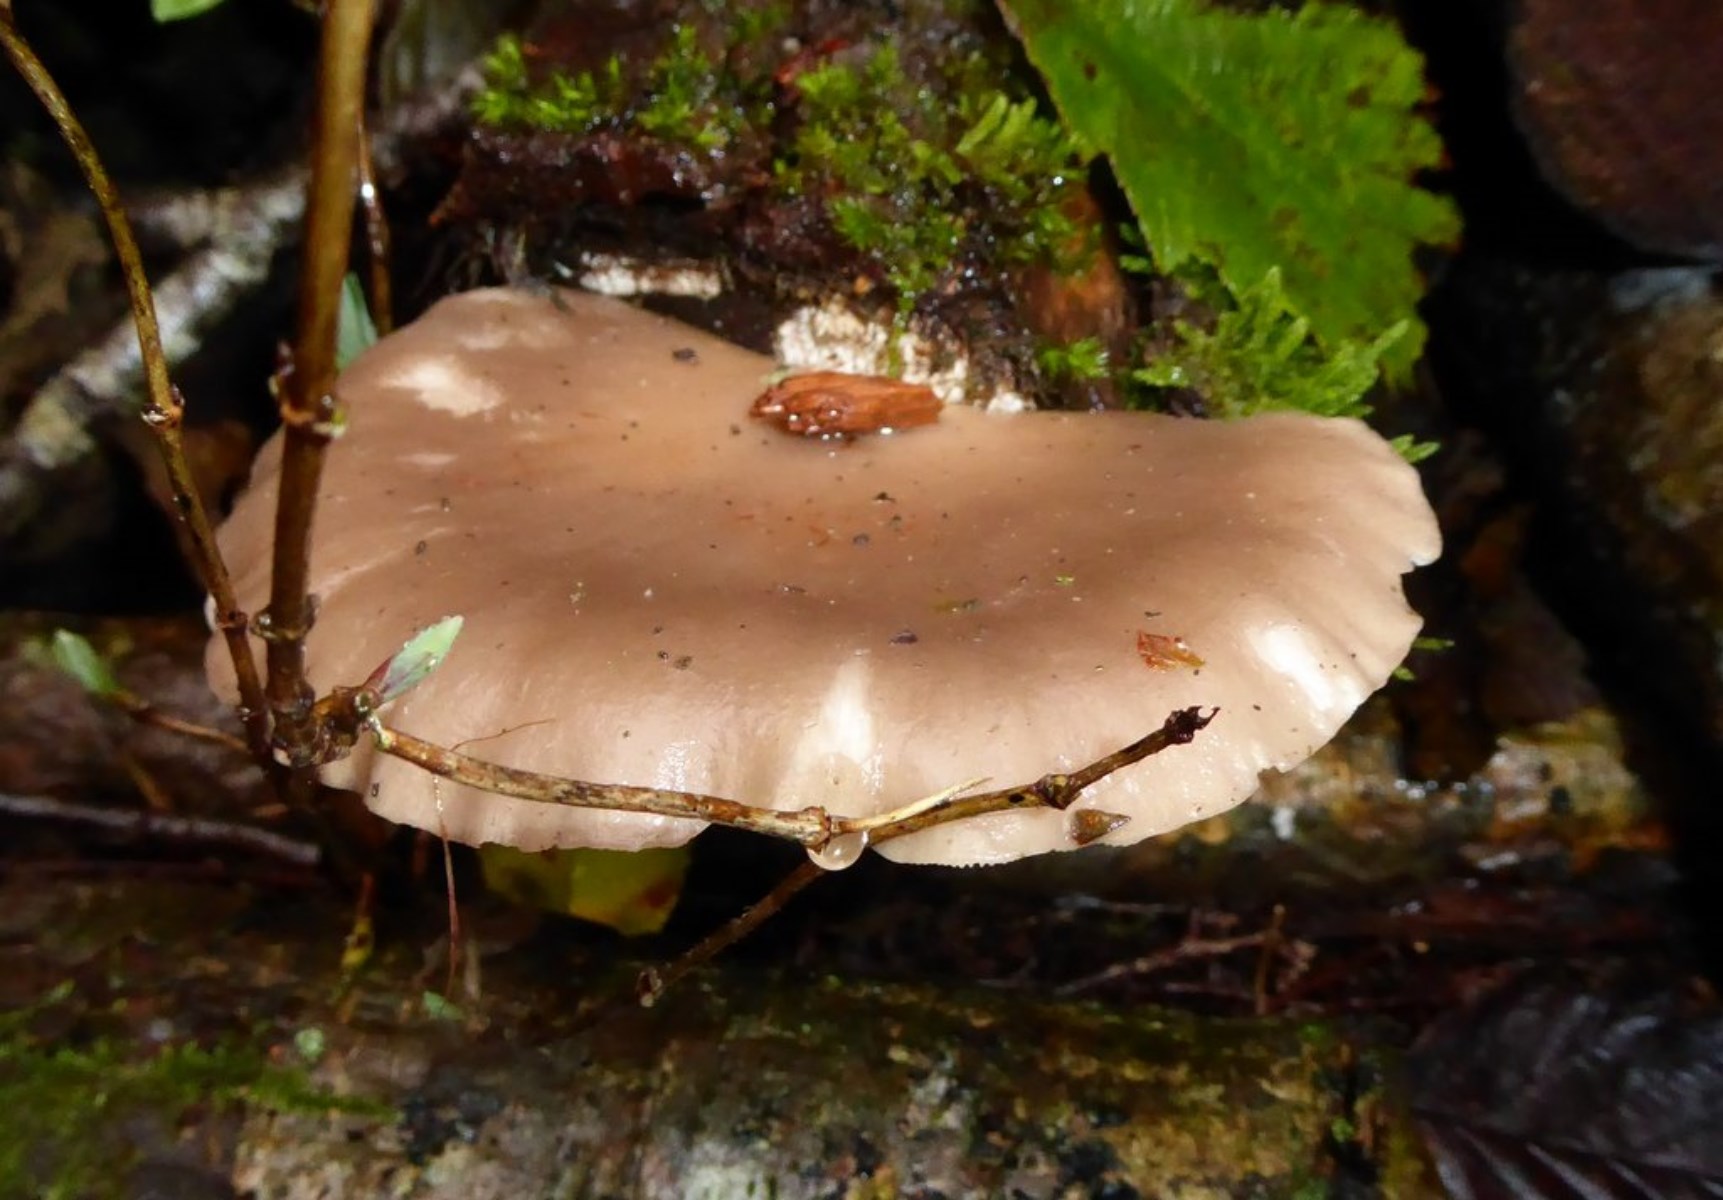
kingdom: Fungi
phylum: Basidiomycota
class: Agaricomycetes
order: Agaricales
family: Pleurotaceae
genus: Pleurotus
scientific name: Pleurotus ostreatus
